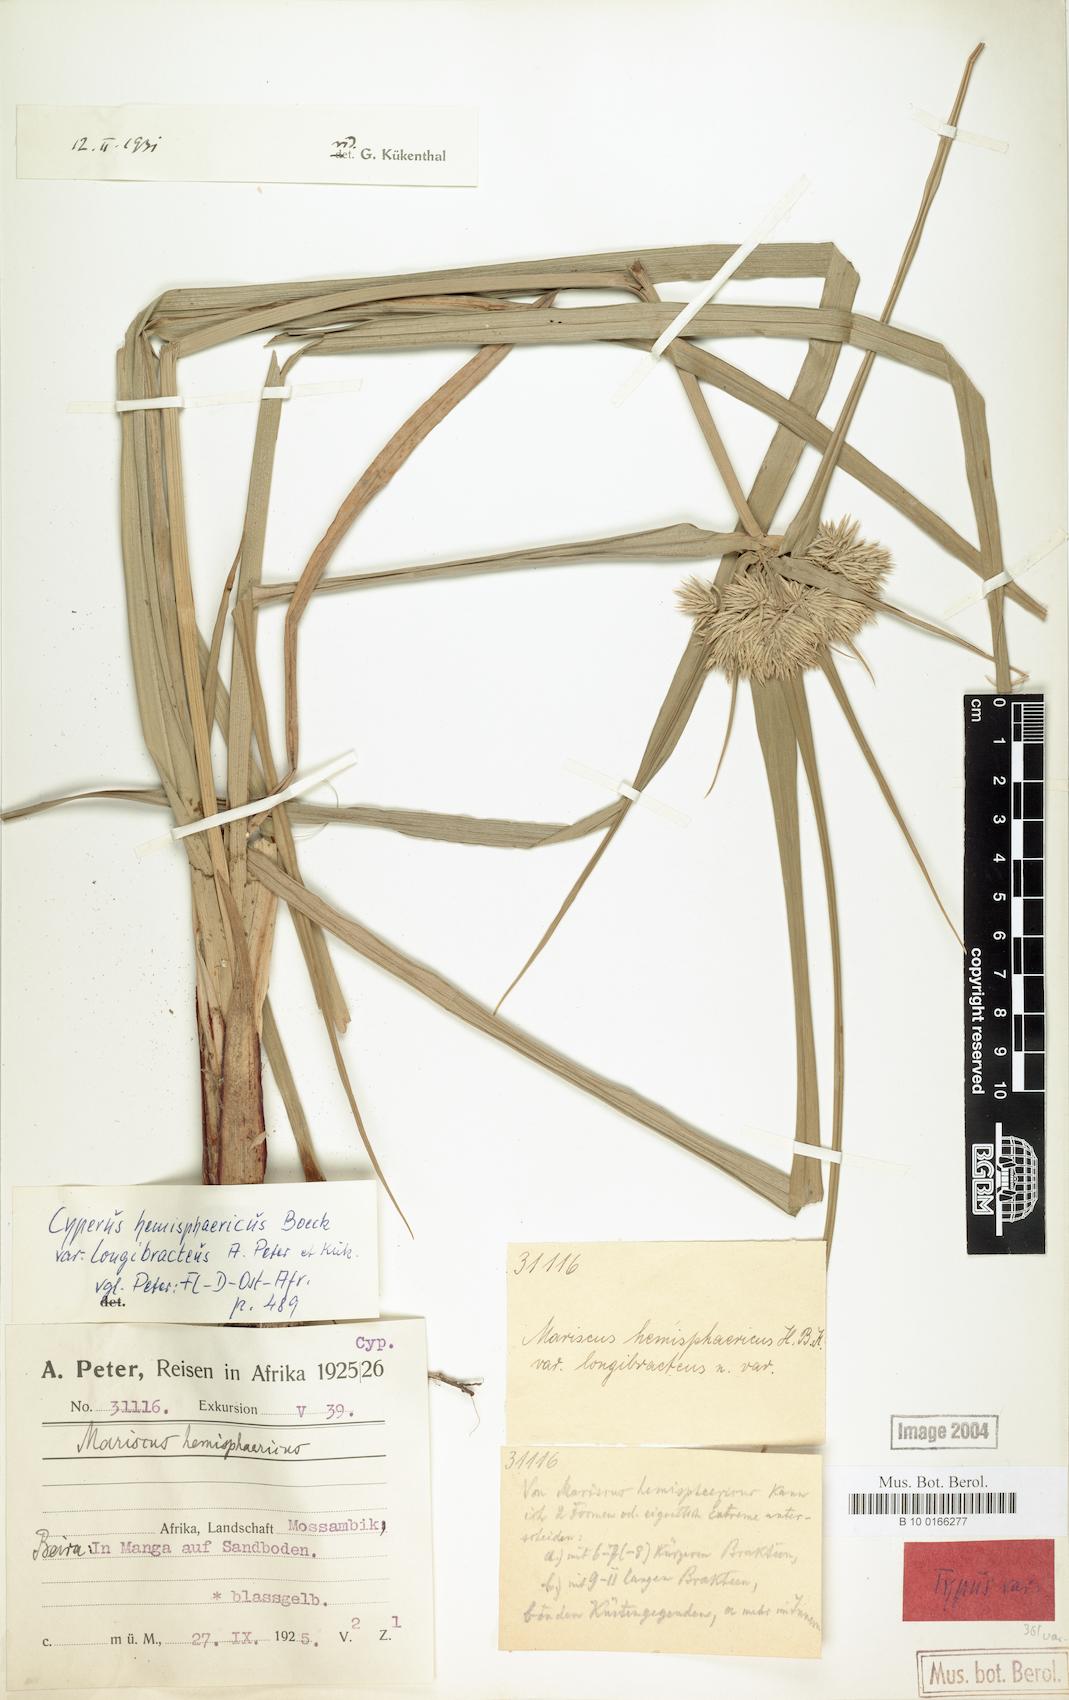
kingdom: Plantae
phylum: Tracheophyta
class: Liliopsida
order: Poales
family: Cyperaceae
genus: Cyperus
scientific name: Cyperus hemisphaericus
